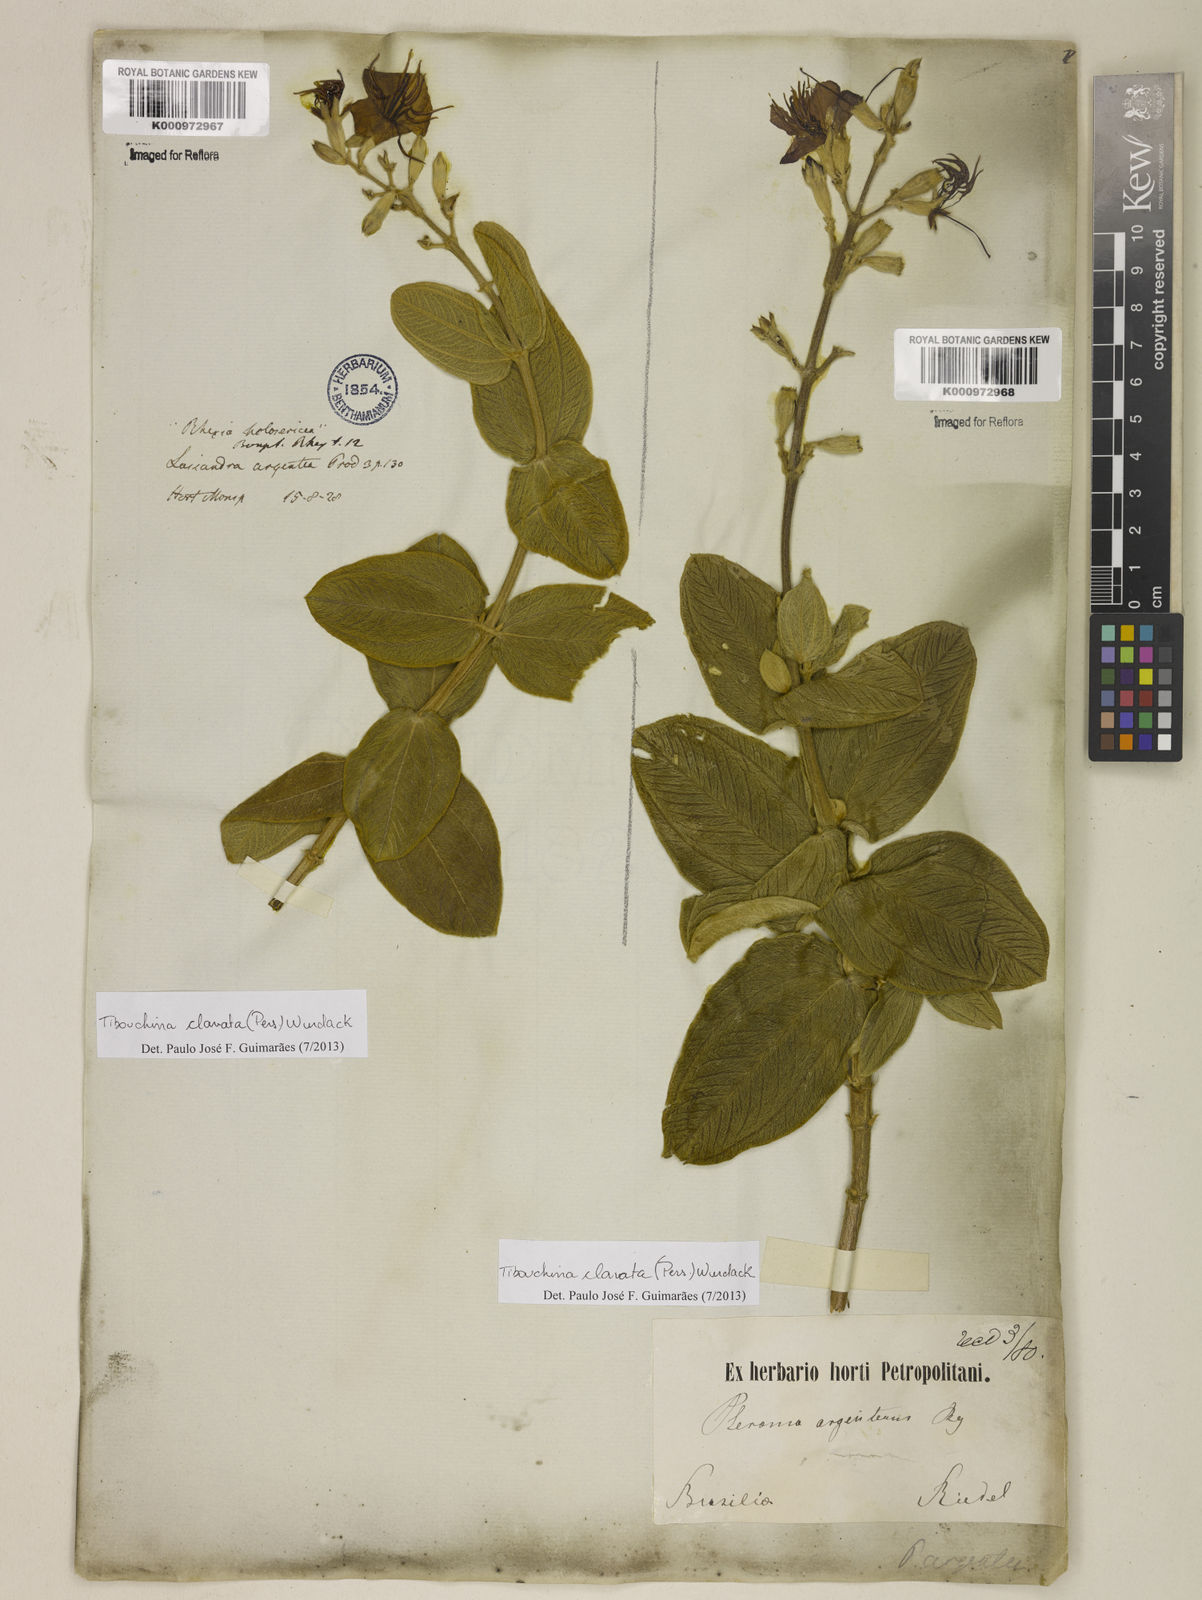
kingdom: Plantae
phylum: Tracheophyta
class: Magnoliopsida
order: Myrtales
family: Melastomataceae
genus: Pleroma
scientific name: Pleroma clavatum
